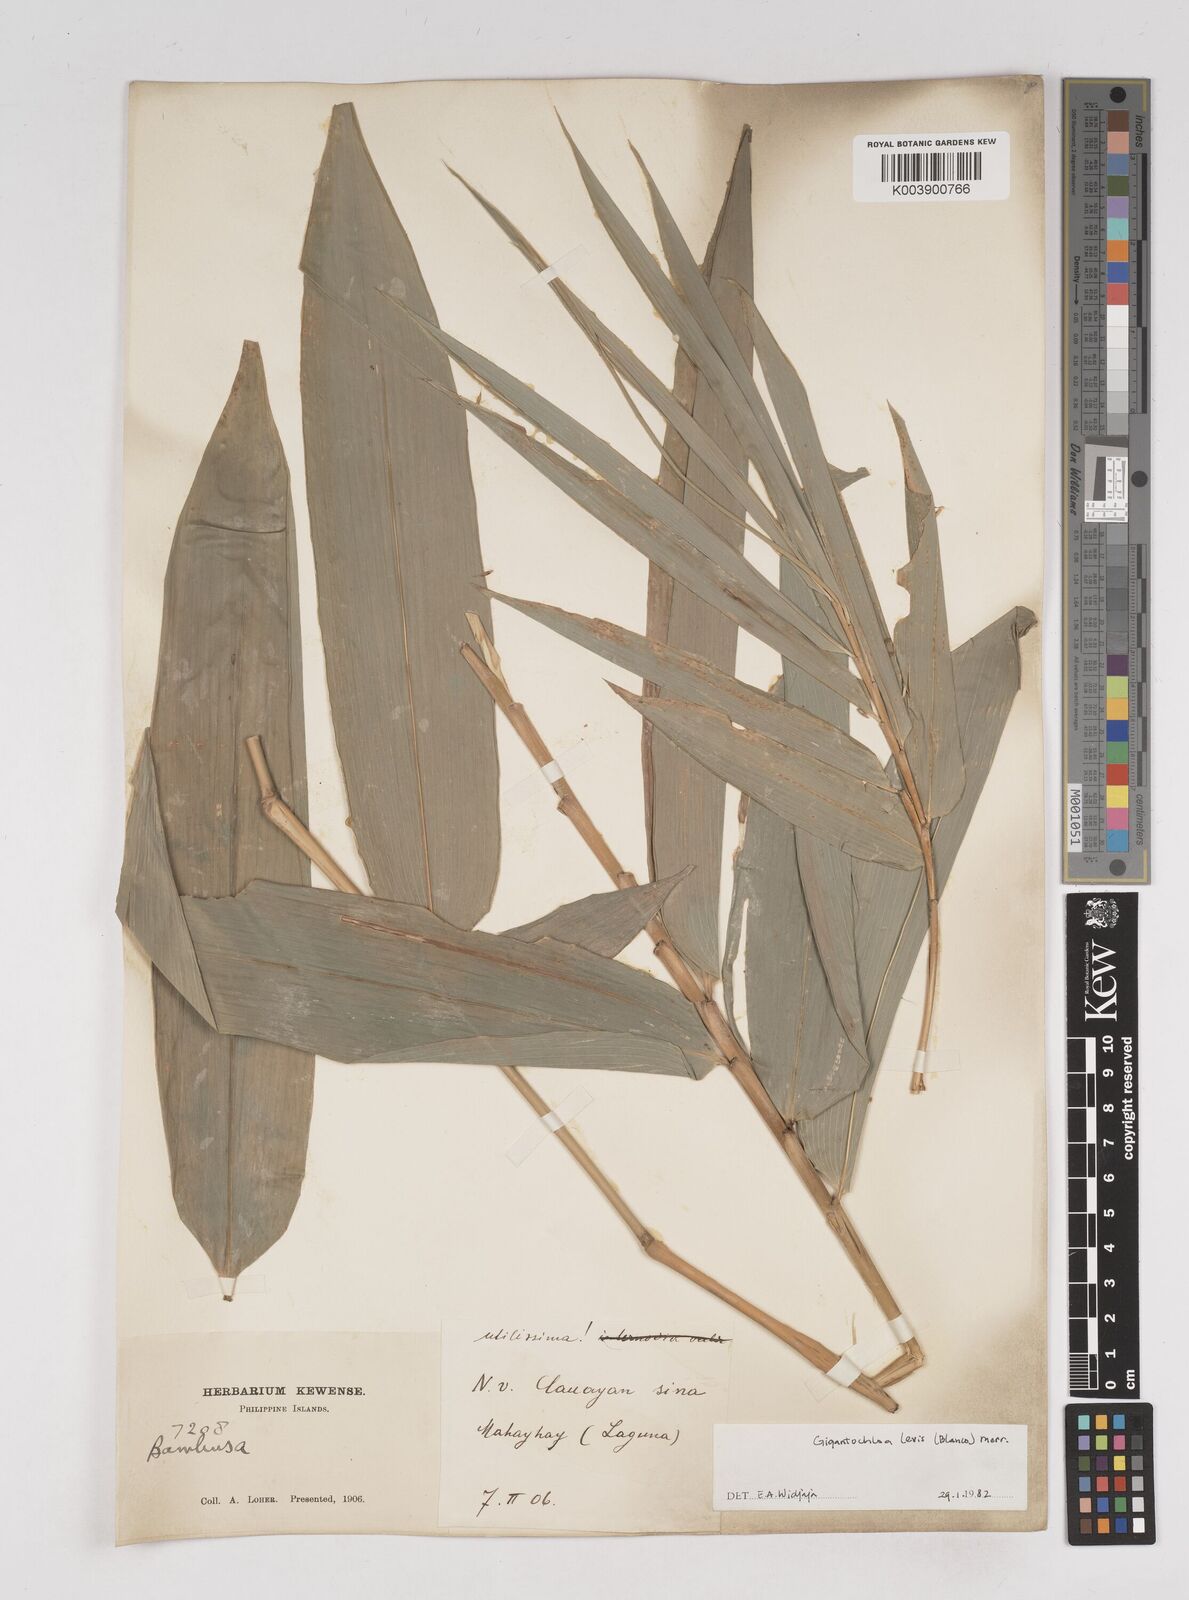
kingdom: Plantae
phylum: Tracheophyta
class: Liliopsida
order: Poales
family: Poaceae
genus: Gigantochloa
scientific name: Gigantochloa
